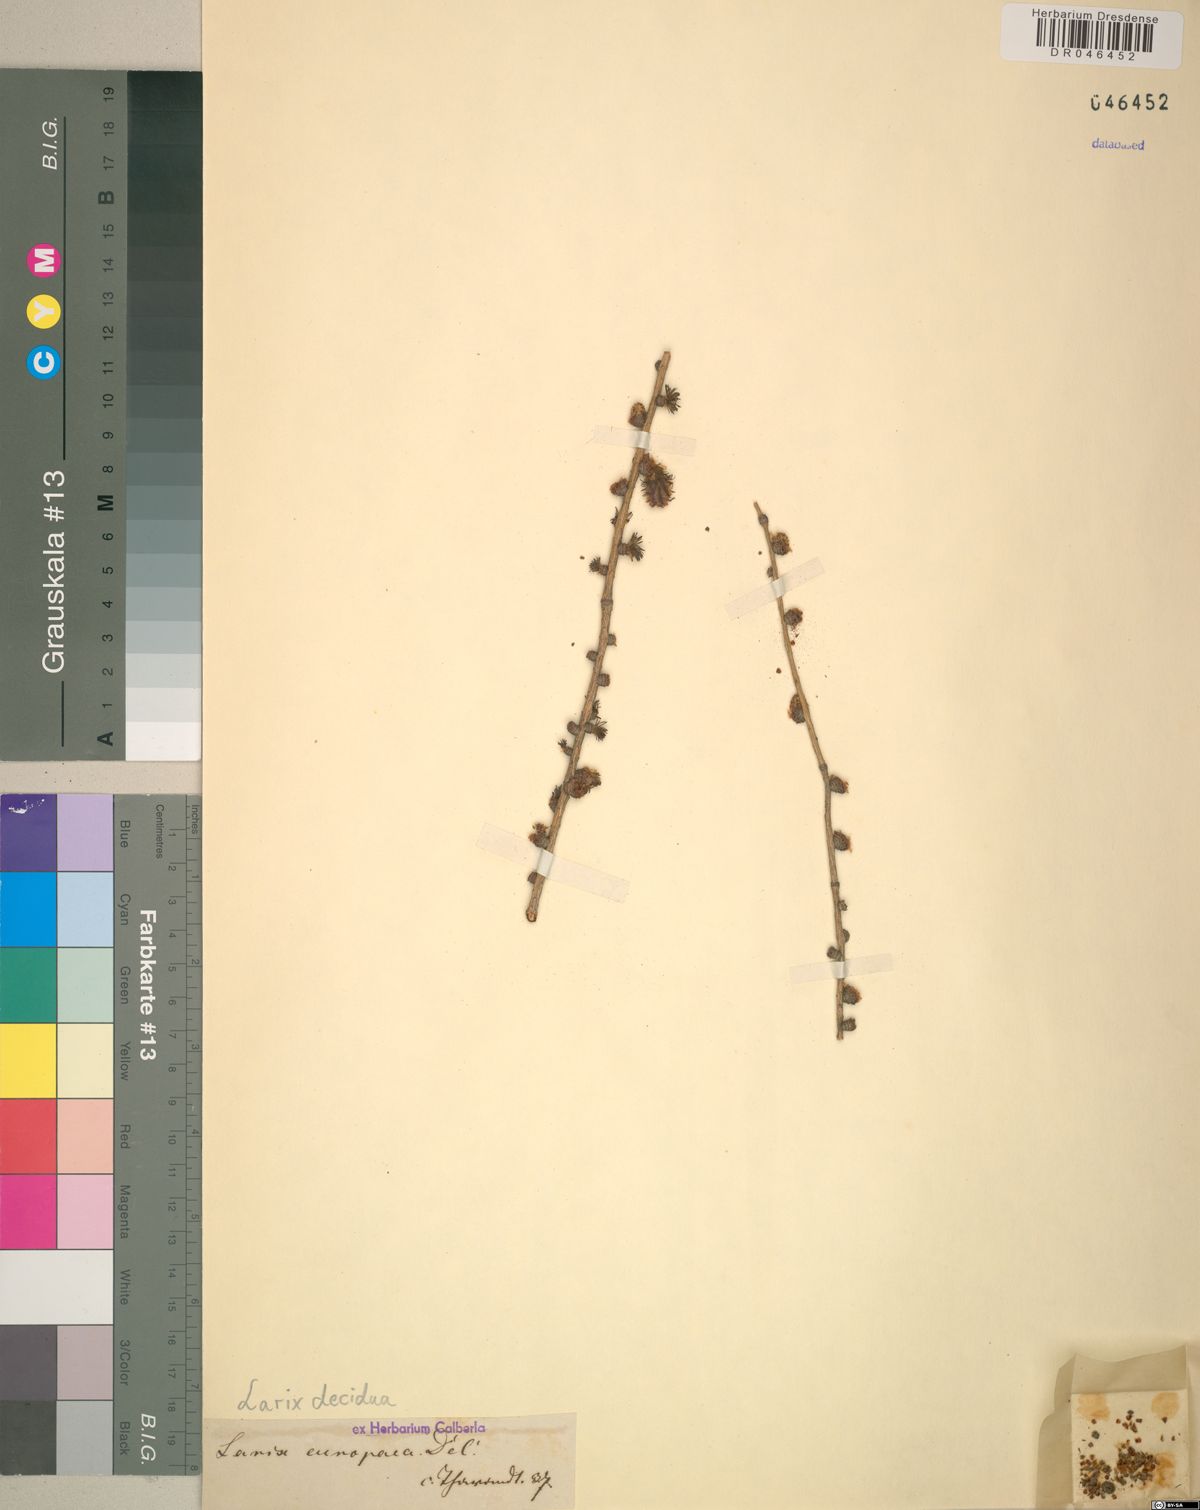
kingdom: Plantae
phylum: Tracheophyta
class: Pinopsida
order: Pinales
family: Pinaceae
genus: Larix
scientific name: Larix decidua
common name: European larch
